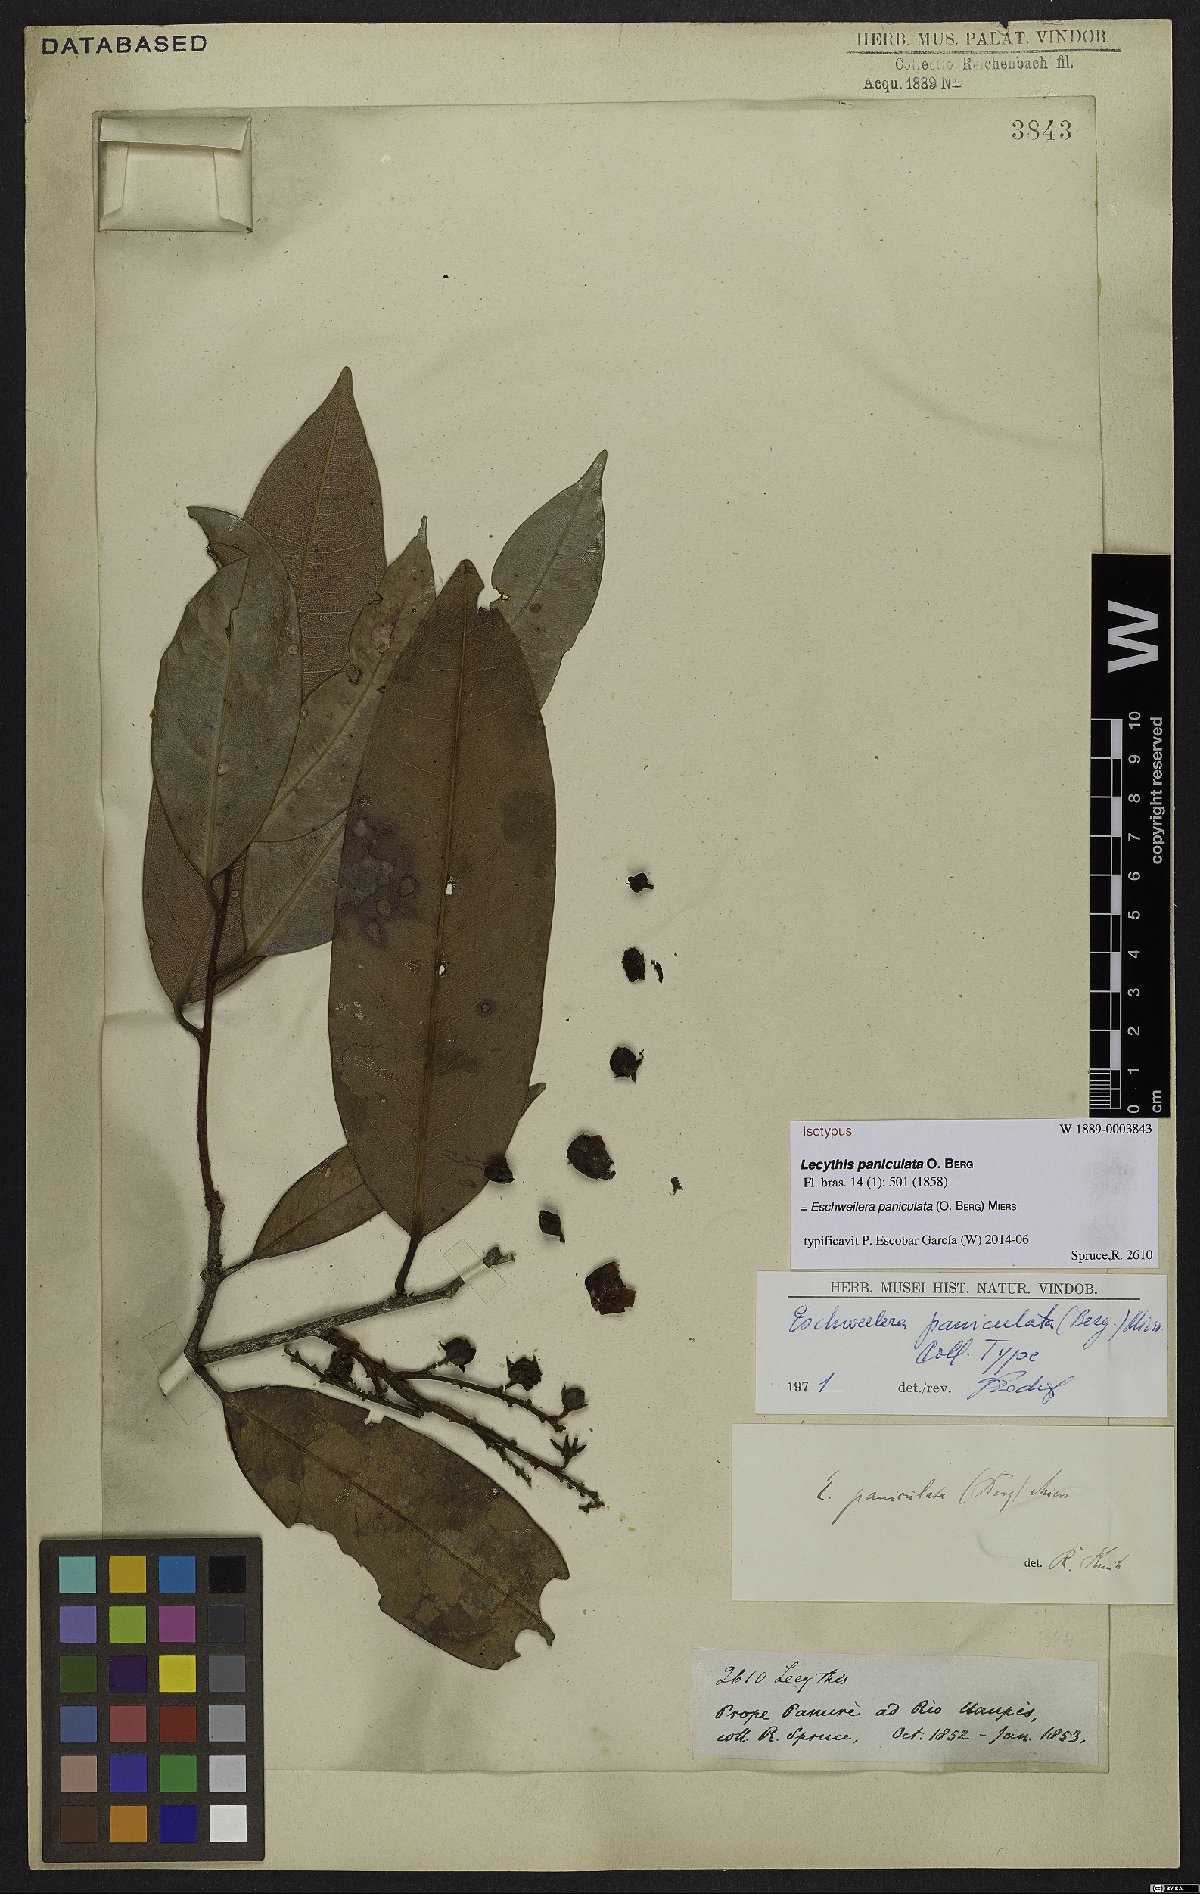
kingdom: Plantae
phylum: Tracheophyta
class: Magnoliopsida
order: Ericales
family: Lecythidaceae
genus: Eschweilera
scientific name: Eschweilera paniculata
